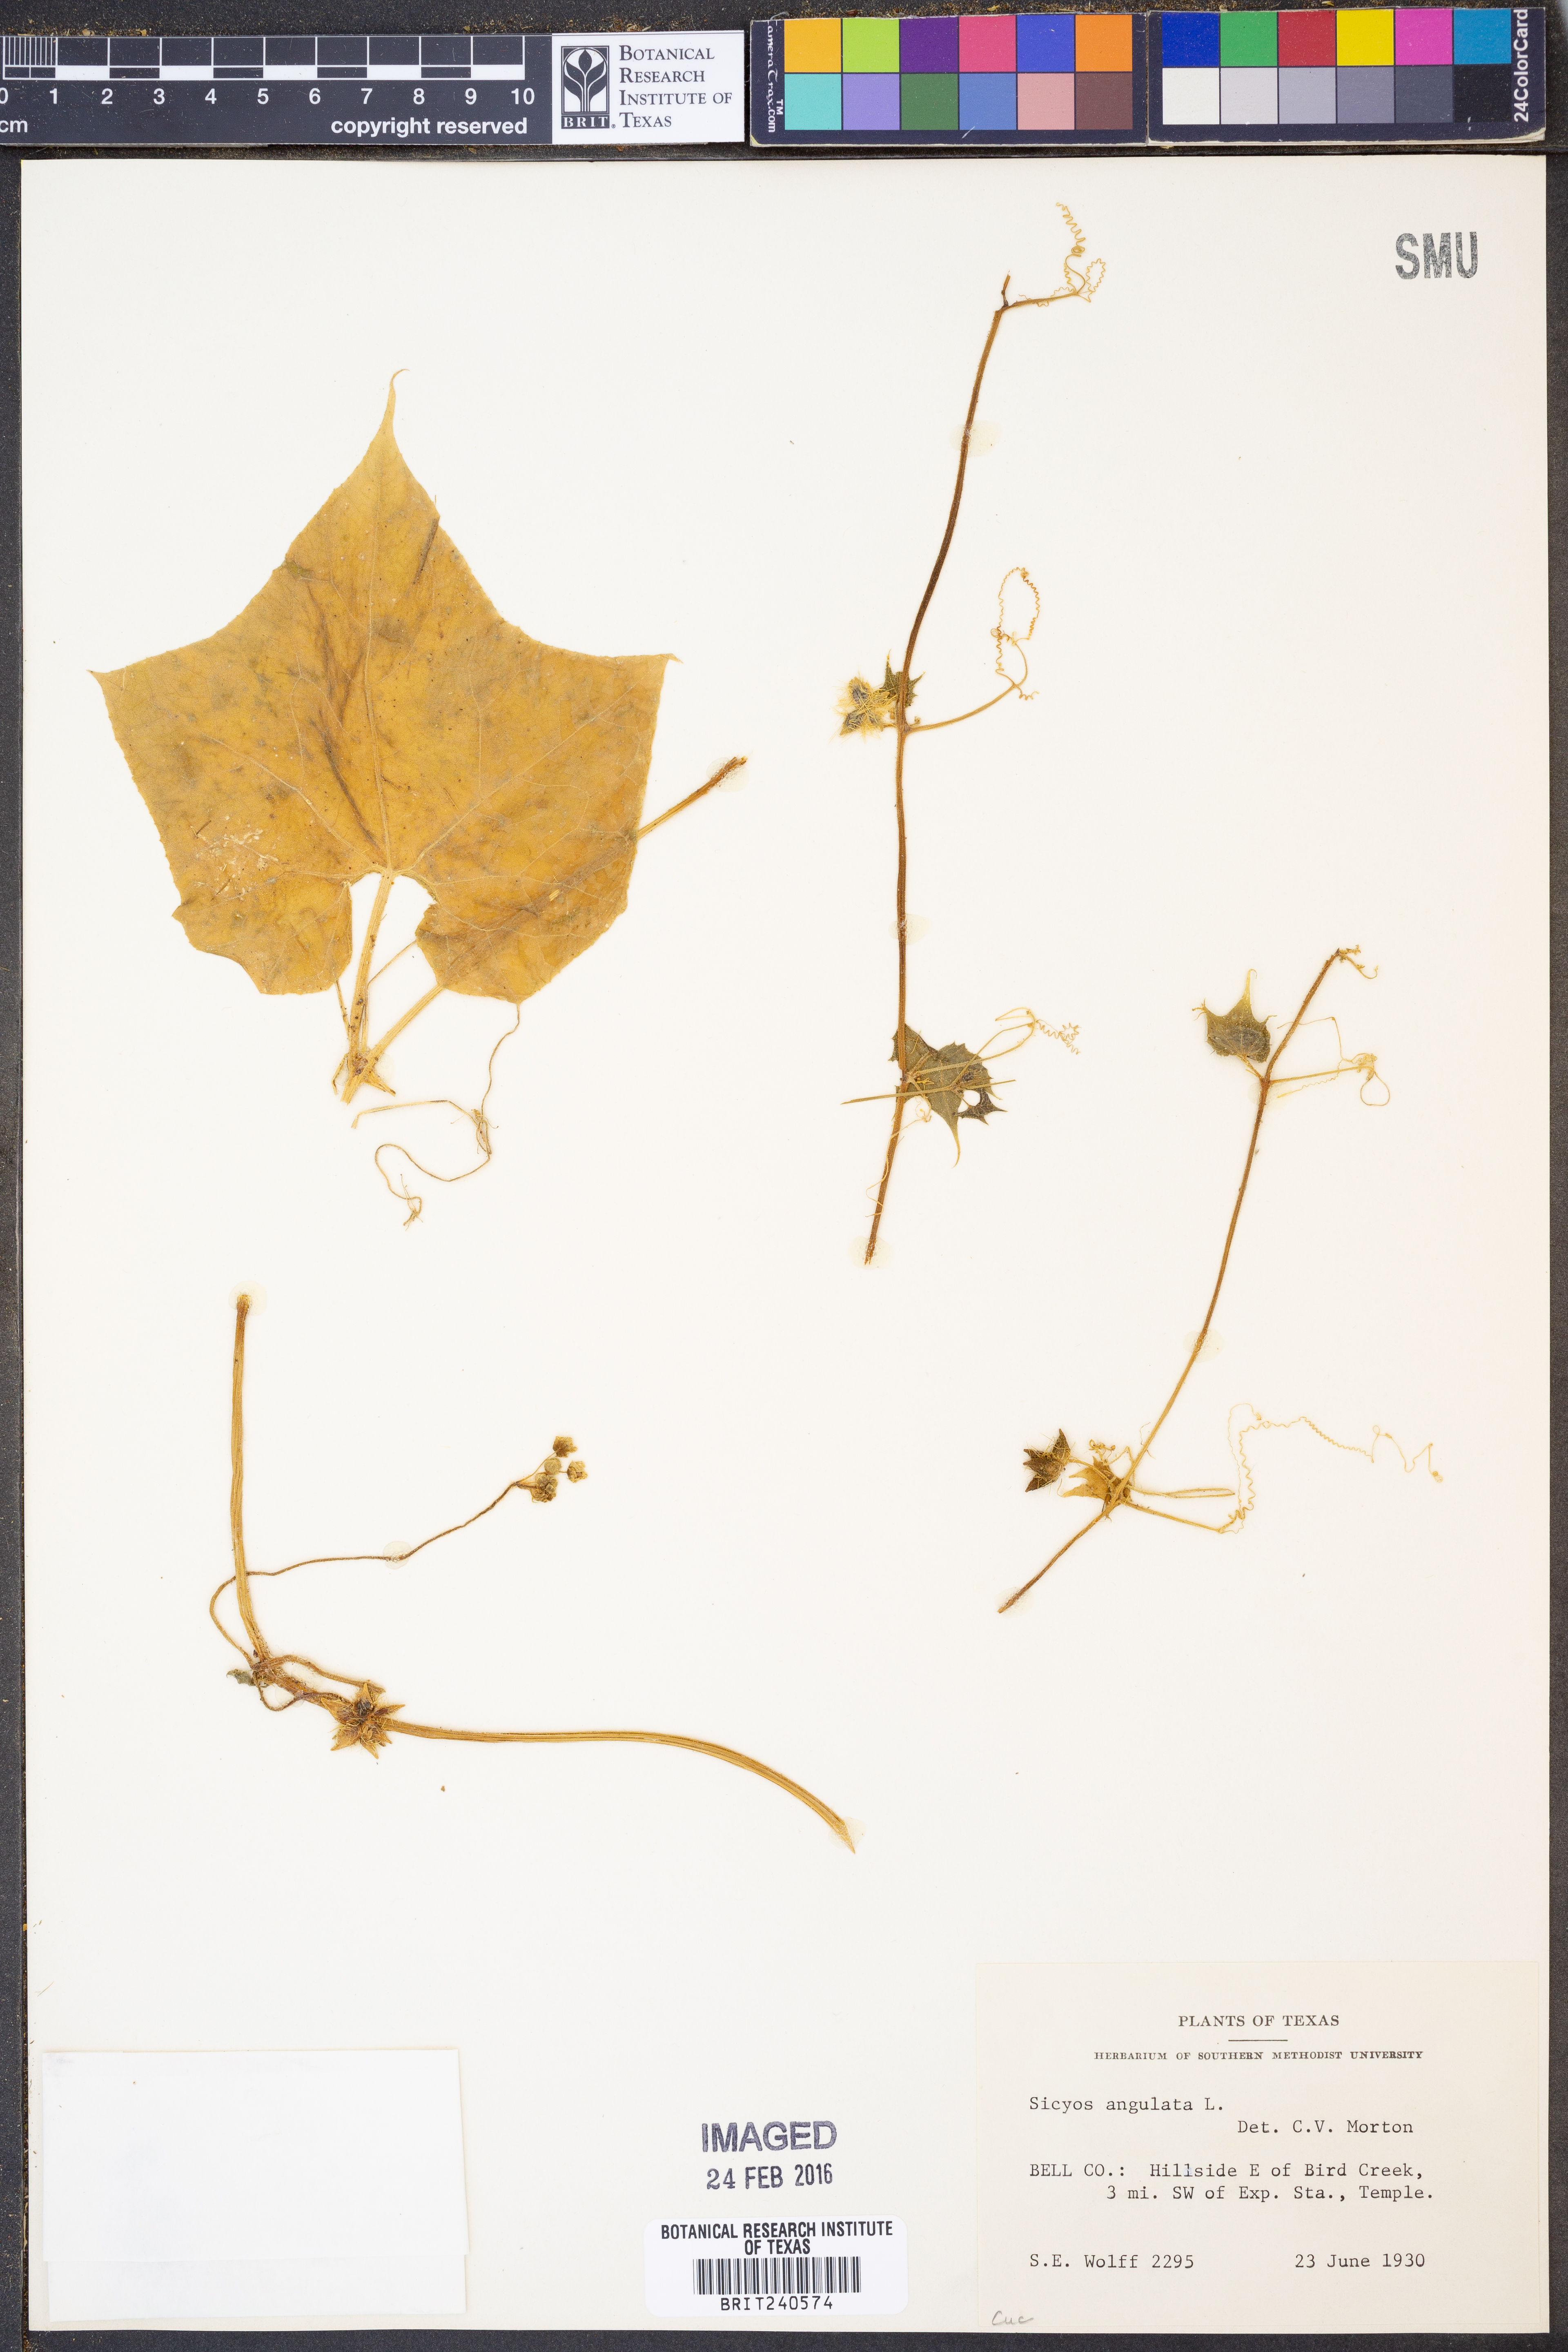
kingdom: Plantae
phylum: Tracheophyta
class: Magnoliopsida
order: Cucurbitales
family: Cucurbitaceae
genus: Sicyos
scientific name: Sicyos angulatus
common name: Angled burr cucumber
